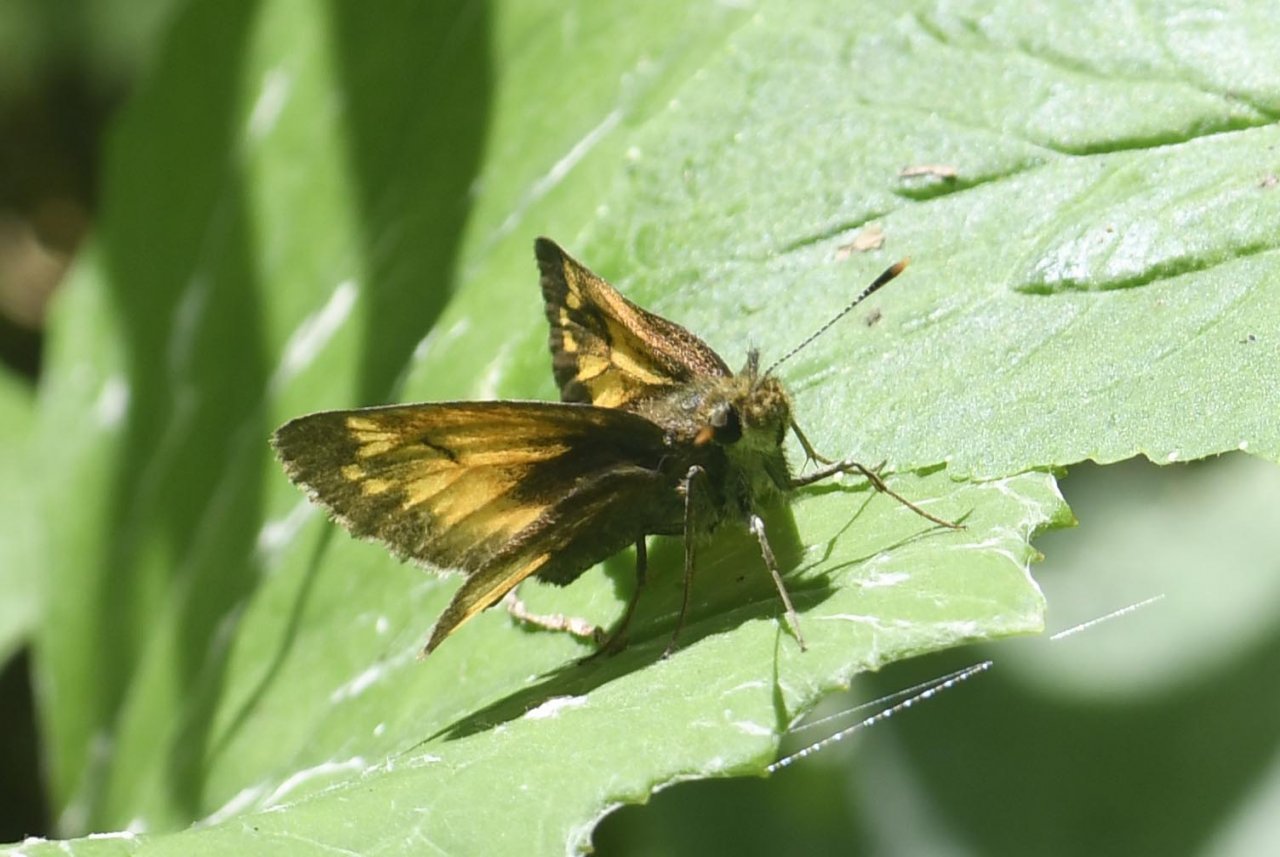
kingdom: Animalia
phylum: Arthropoda
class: Insecta
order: Lepidoptera
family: Hesperiidae
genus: Lon
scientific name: Lon hobomok
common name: Hobomok Skipper
